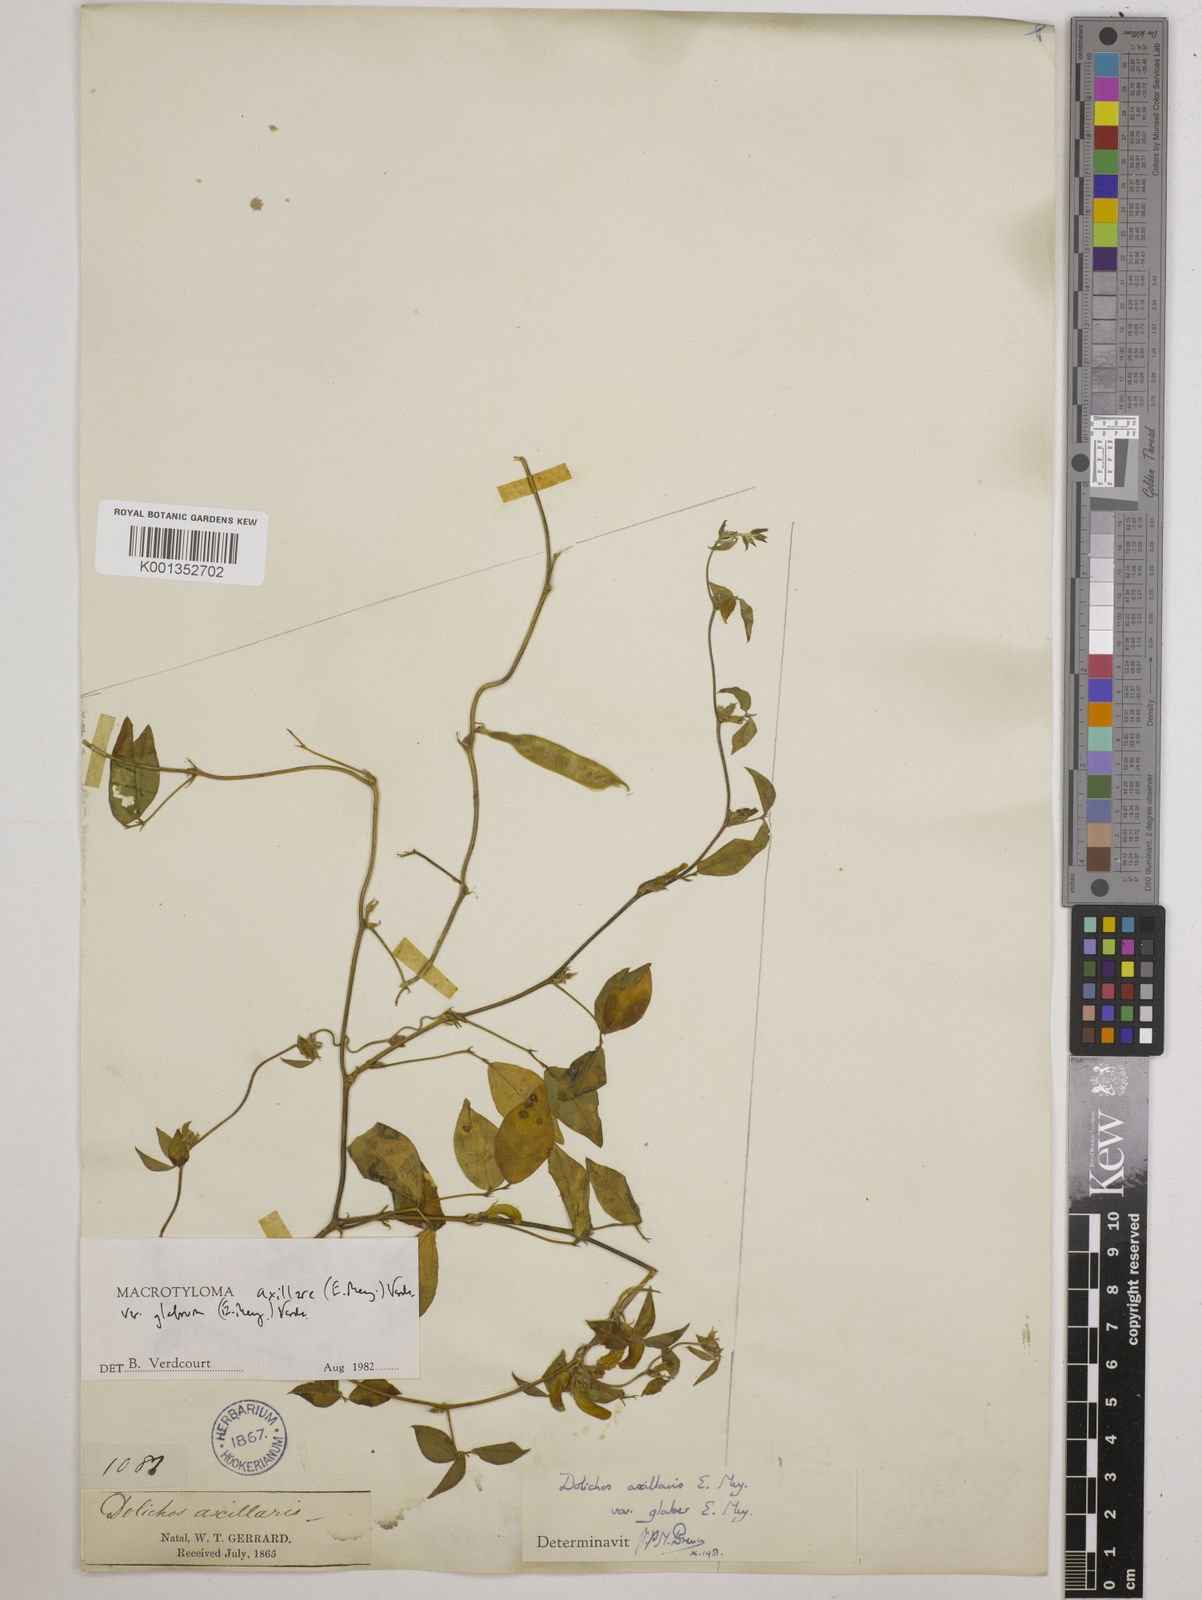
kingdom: Plantae
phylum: Tracheophyta
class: Magnoliopsida
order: Fabales
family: Fabaceae
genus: Macrotyloma
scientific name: Macrotyloma
